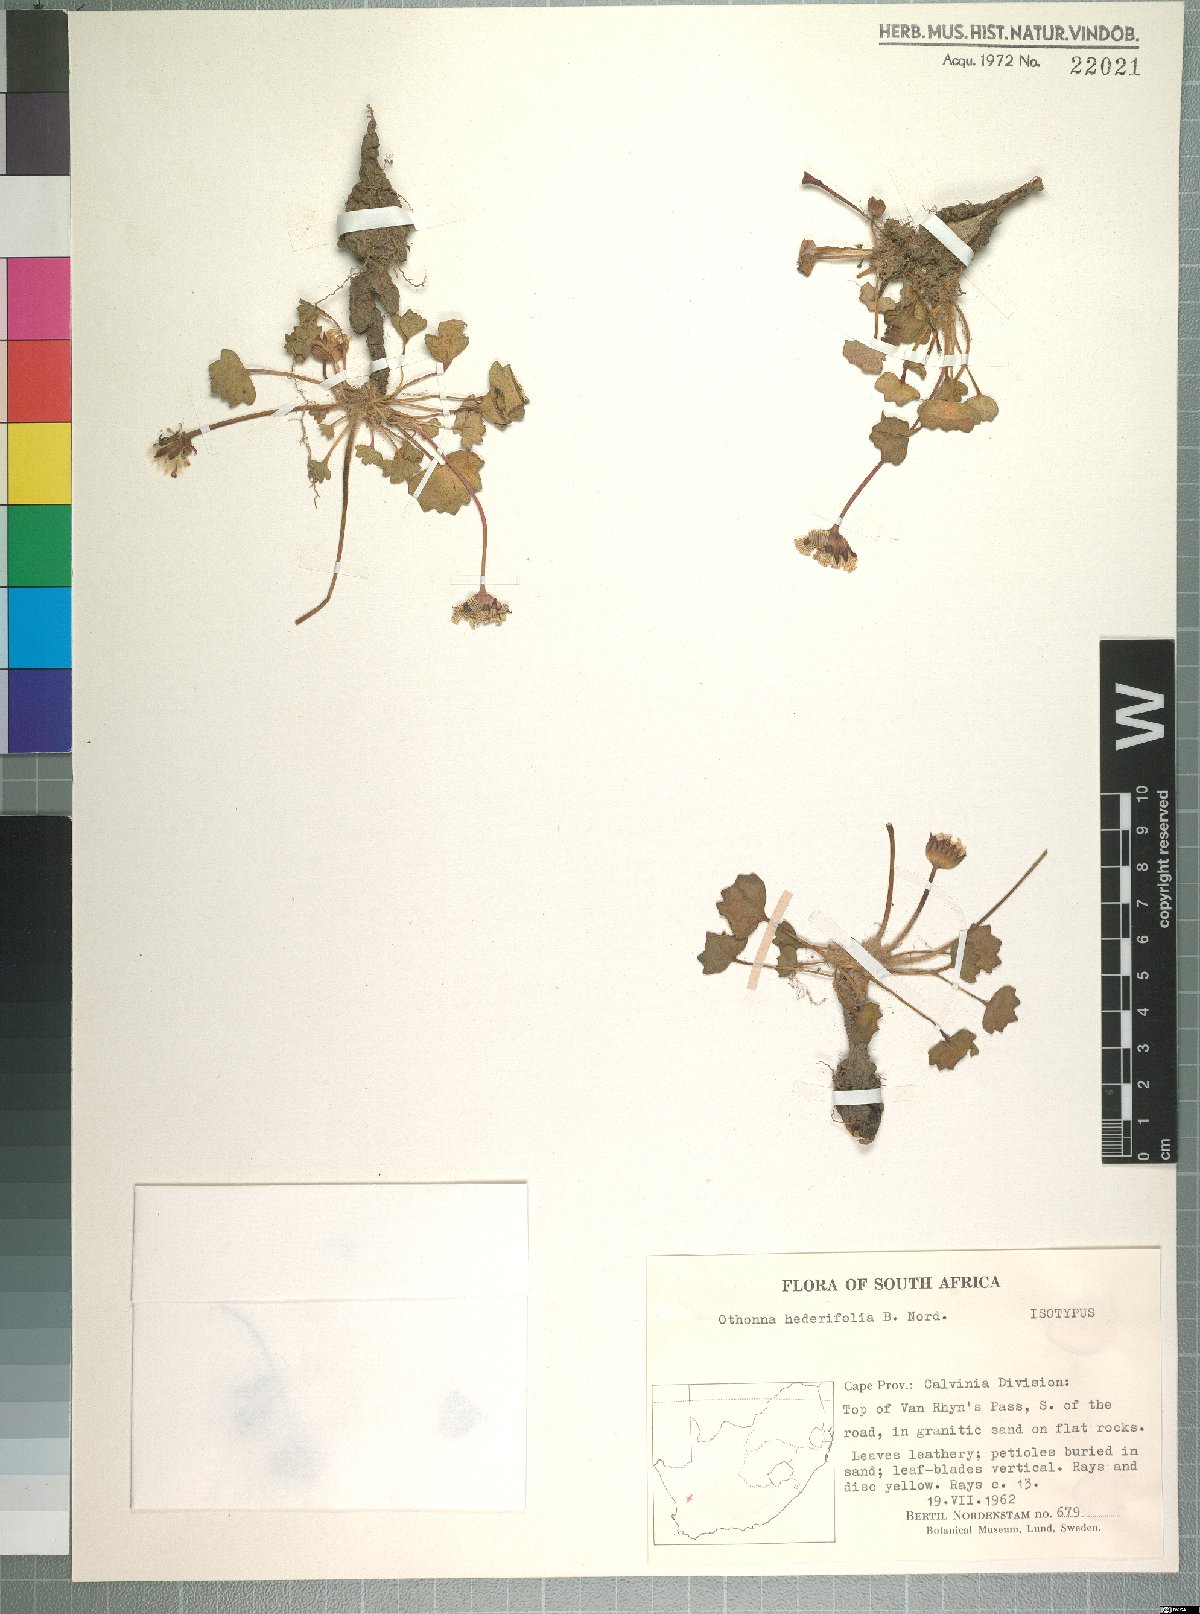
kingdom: Plantae
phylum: Tracheophyta
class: Magnoliopsida
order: Asterales
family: Asteraceae
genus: Othonna
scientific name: Othonna hederifolia
